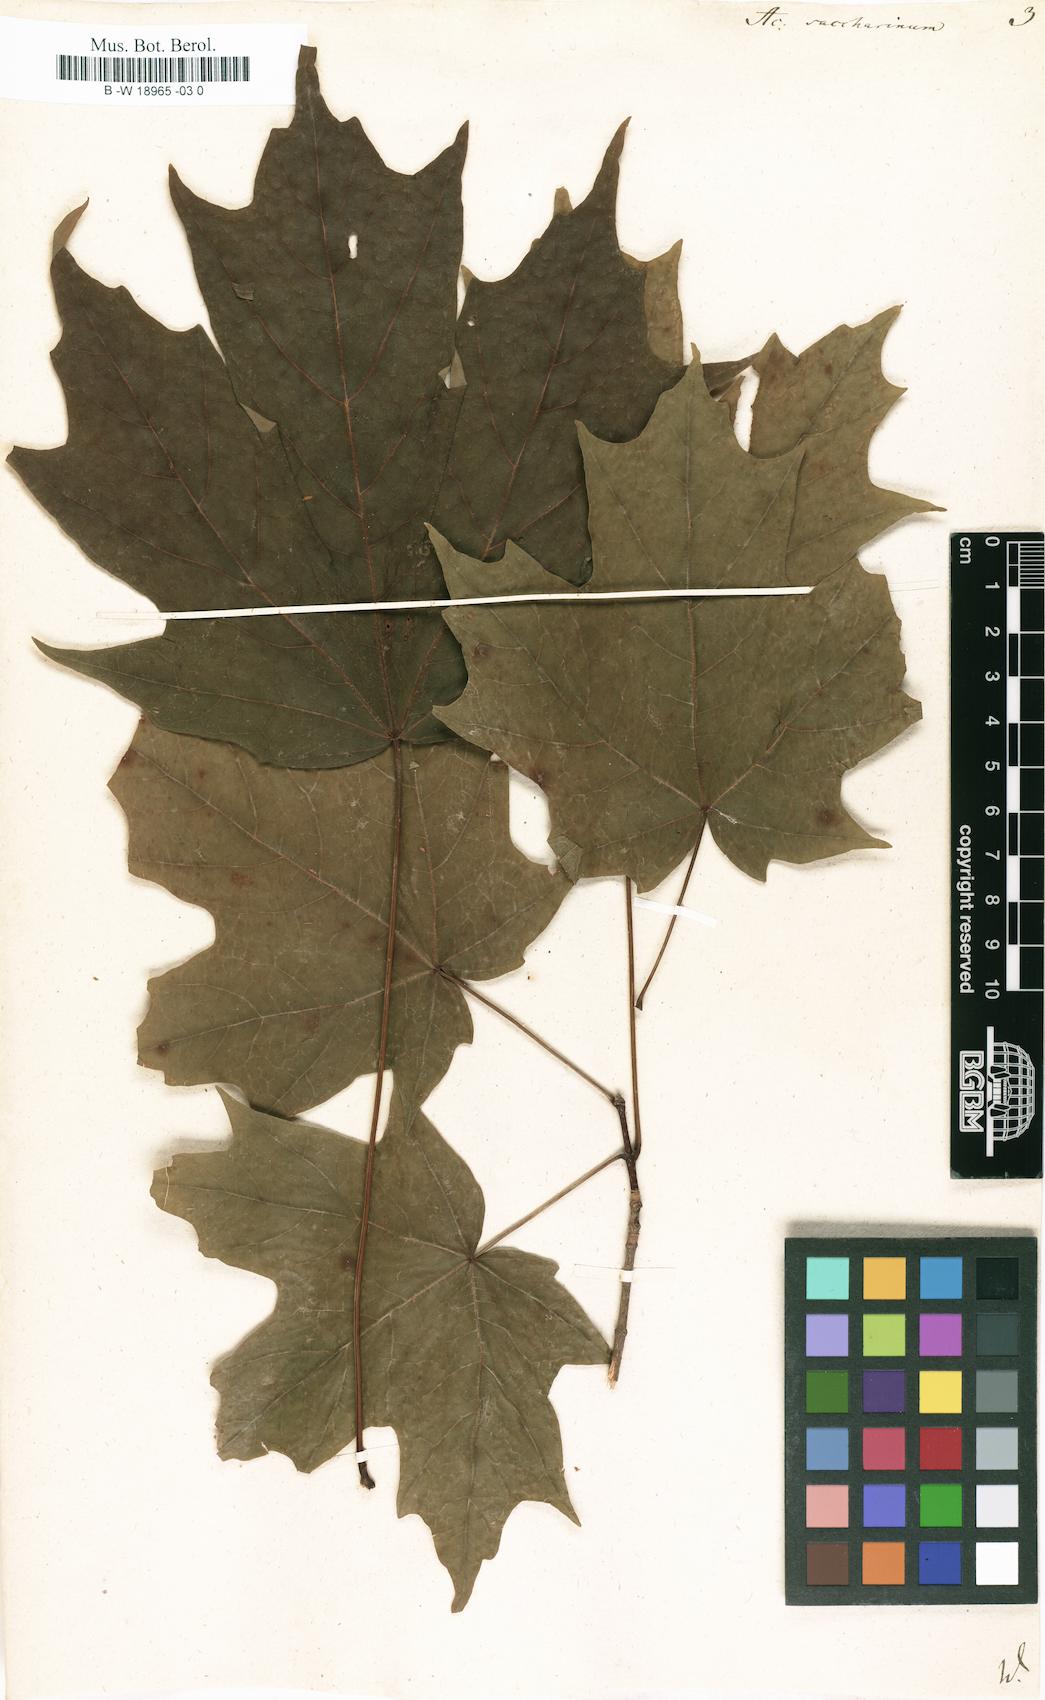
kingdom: Plantae
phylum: Tracheophyta
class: Magnoliopsida
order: Sapindales
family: Sapindaceae
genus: Acer
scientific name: Acer saccharinum
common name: Silver maple
